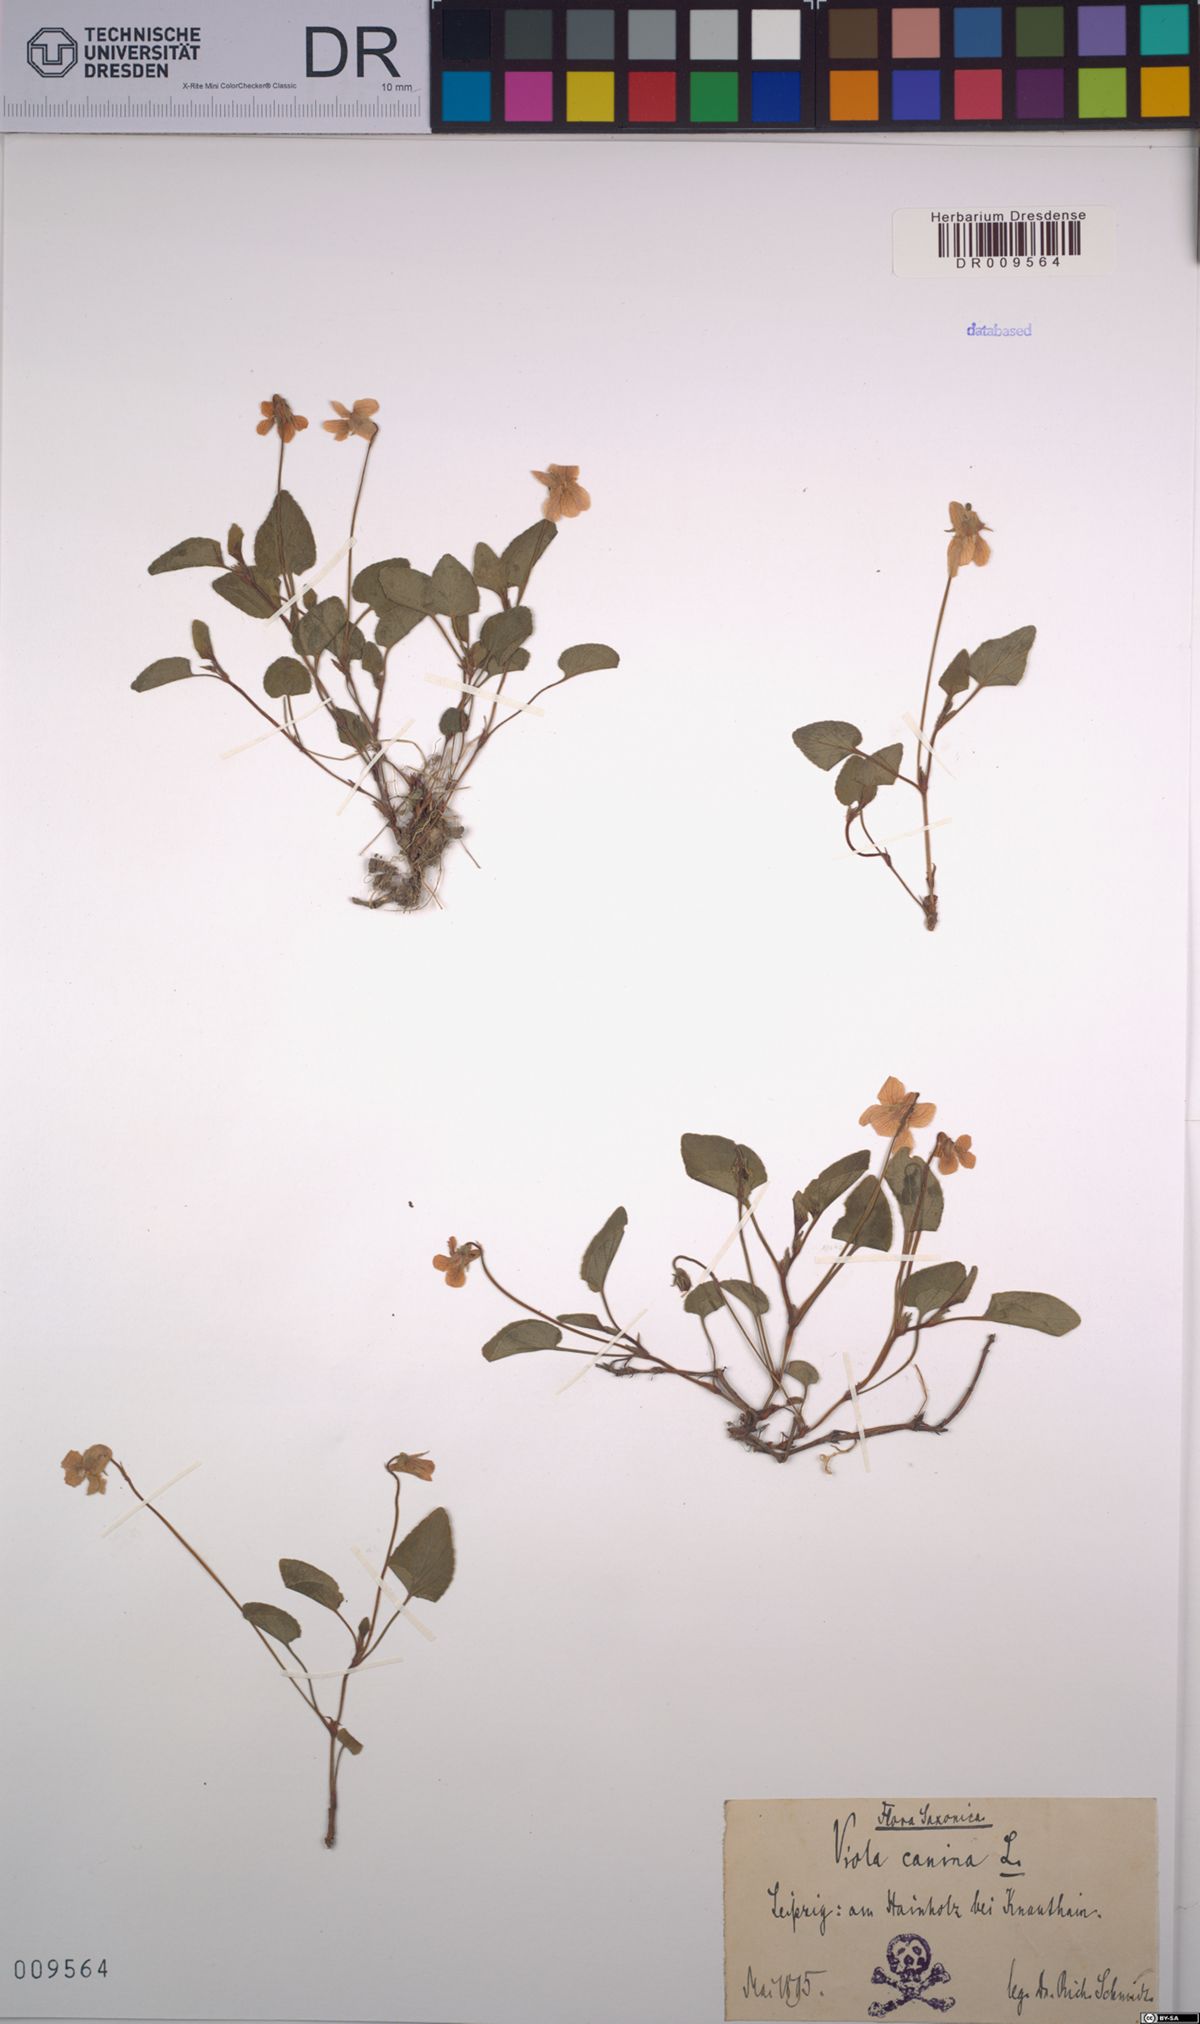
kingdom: Plantae
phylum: Tracheophyta
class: Magnoliopsida
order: Malpighiales
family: Violaceae
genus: Viola
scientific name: Viola canina
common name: Heath dog-violet
